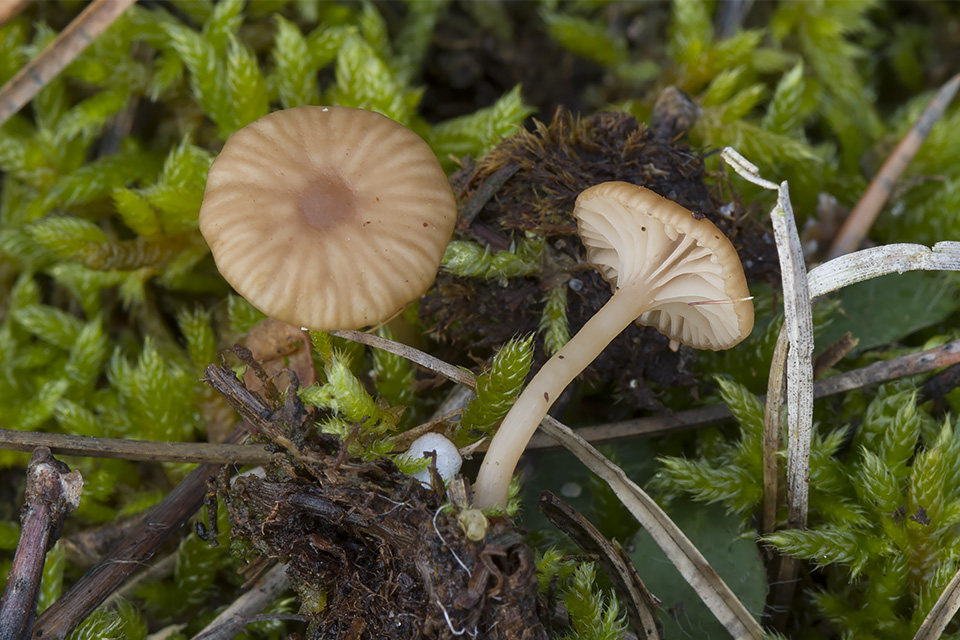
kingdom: Fungi
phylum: Basidiomycota
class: Agaricomycetes
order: Agaricales
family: Tricholomataceae
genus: Omphalina
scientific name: Omphalina pyxidata
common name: rødbrun navlehat
